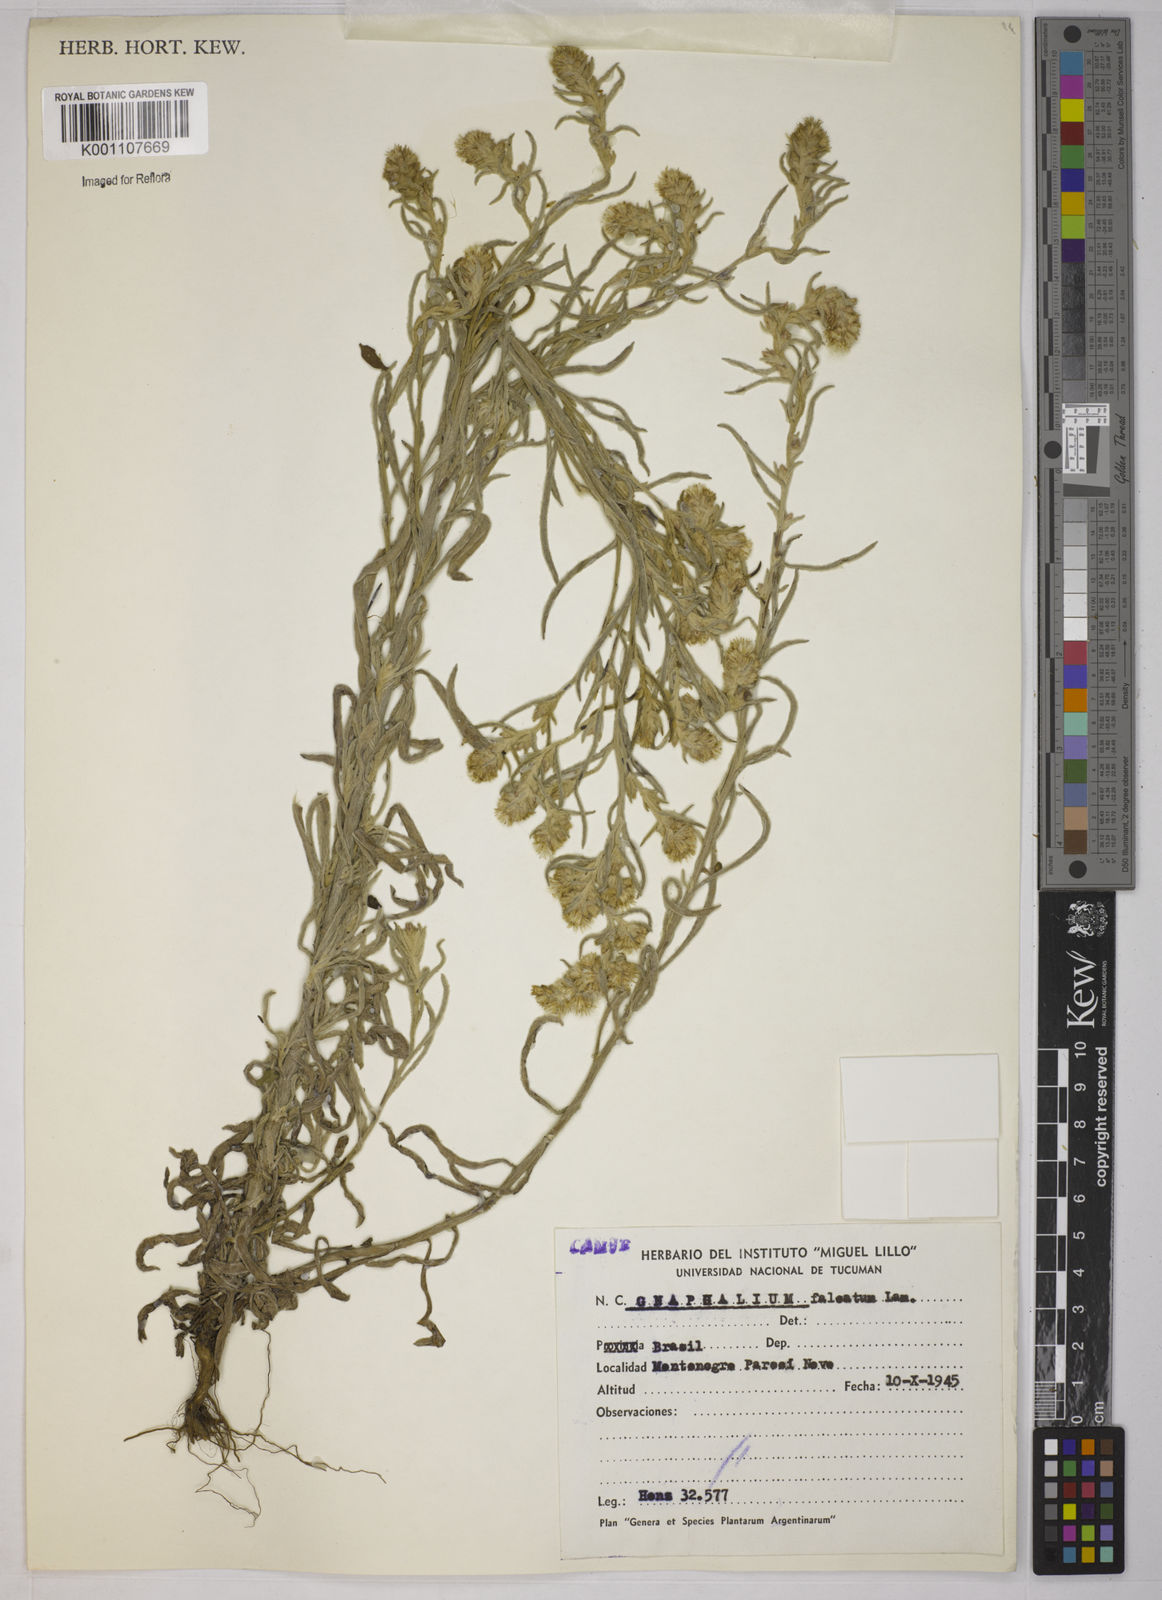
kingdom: Plantae
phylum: Tracheophyta
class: Magnoliopsida
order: Asterales
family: Asteraceae
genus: Gamochaeta
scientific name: Gamochaeta falcata
